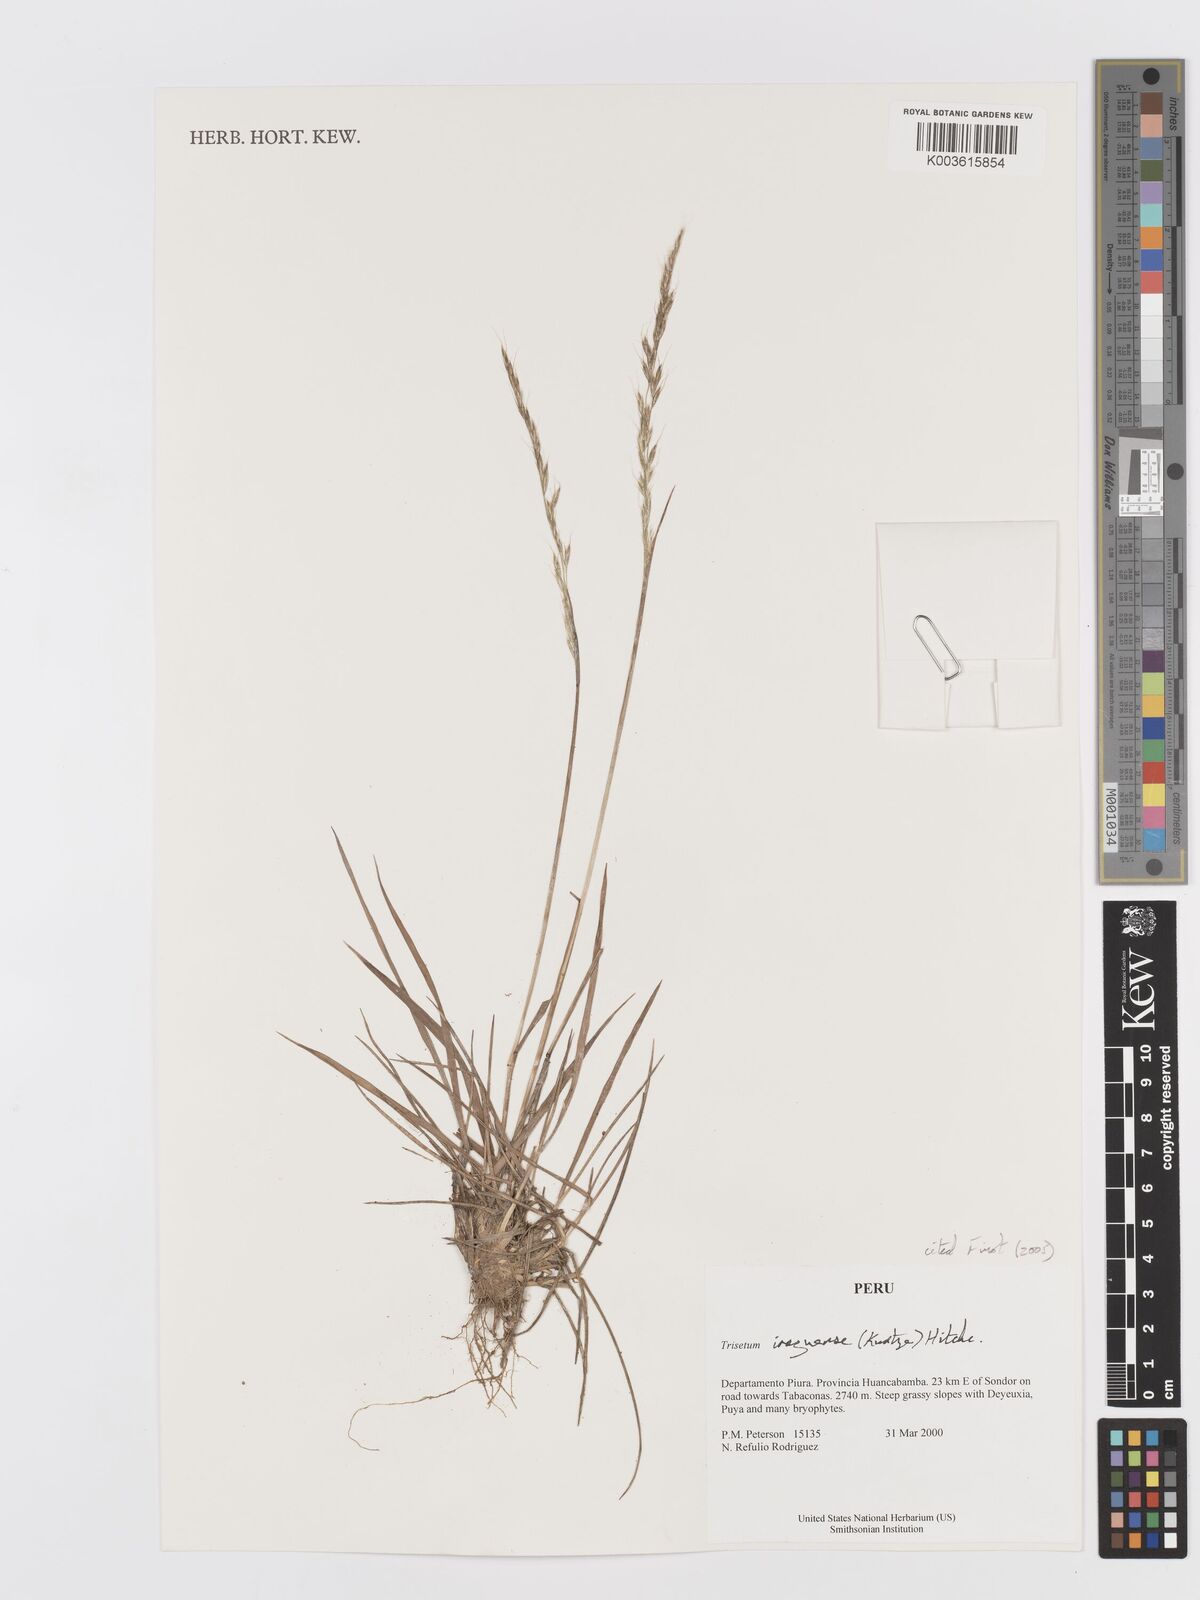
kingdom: Plantae
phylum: Tracheophyta
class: Liliopsida
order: Poales
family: Poaceae
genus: Peyritschia
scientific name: Peyritschia irazuensis
